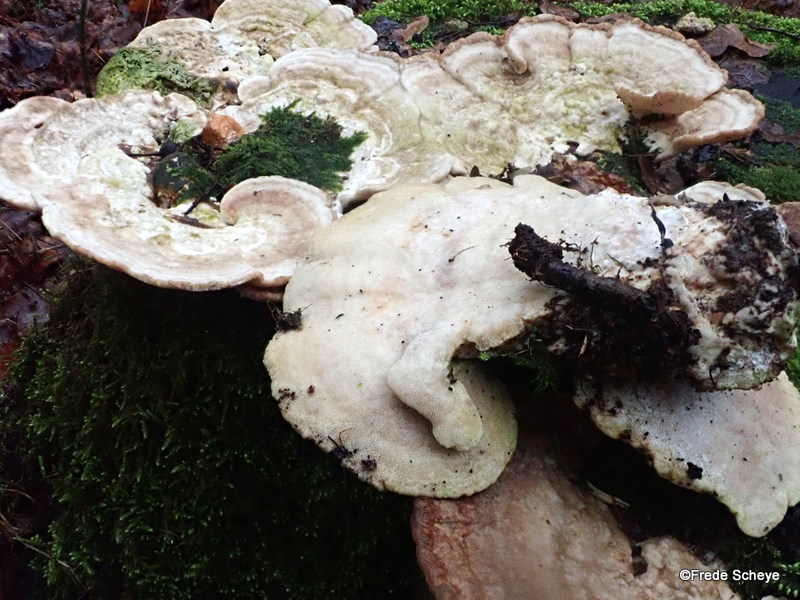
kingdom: Fungi
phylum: Basidiomycota
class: Agaricomycetes
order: Polyporales
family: Polyporaceae
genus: Trametes
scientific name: Trametes gibbosa
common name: puklet læderporesvamp
